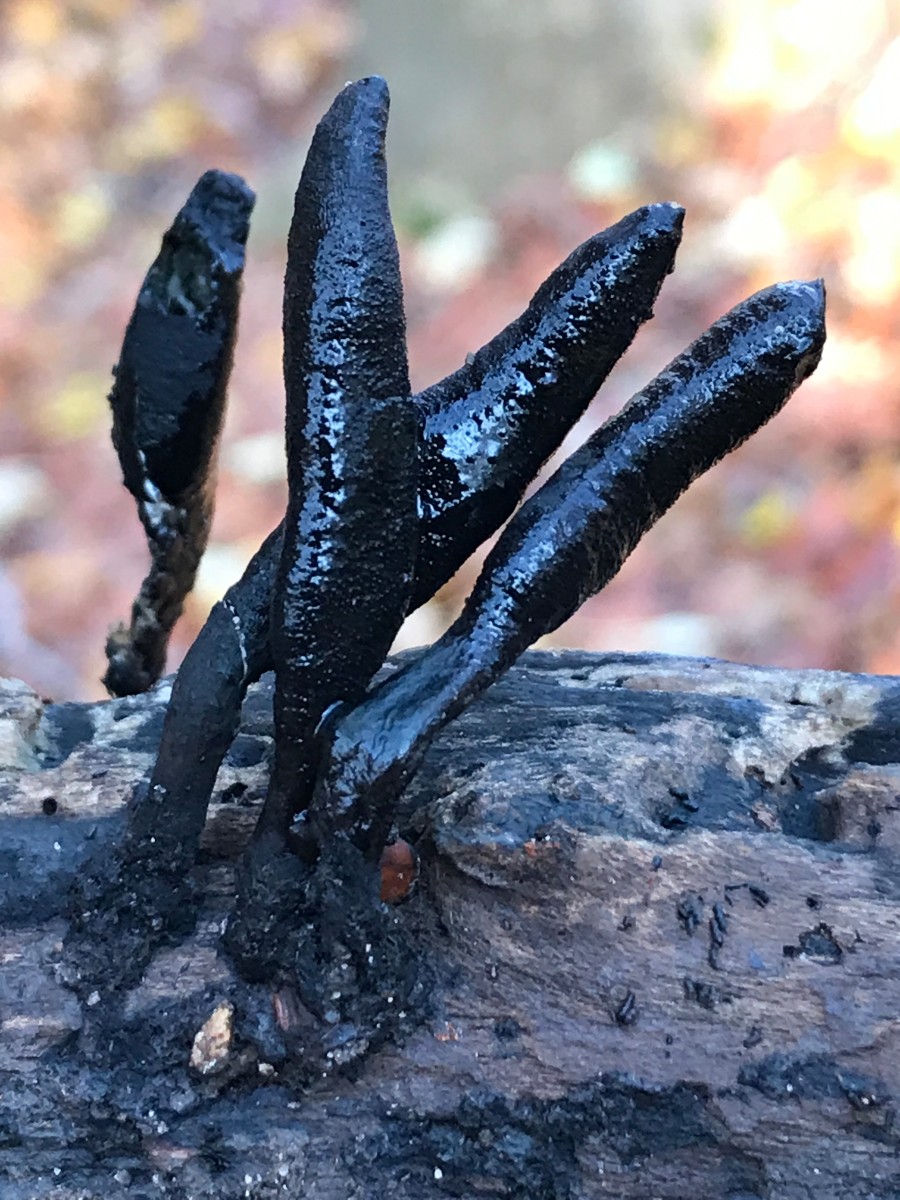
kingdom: Fungi
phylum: Ascomycota
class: Sordariomycetes
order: Xylariales
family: Xylariaceae
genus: Xylaria
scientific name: Xylaria longipes
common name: slank stødsvamp
